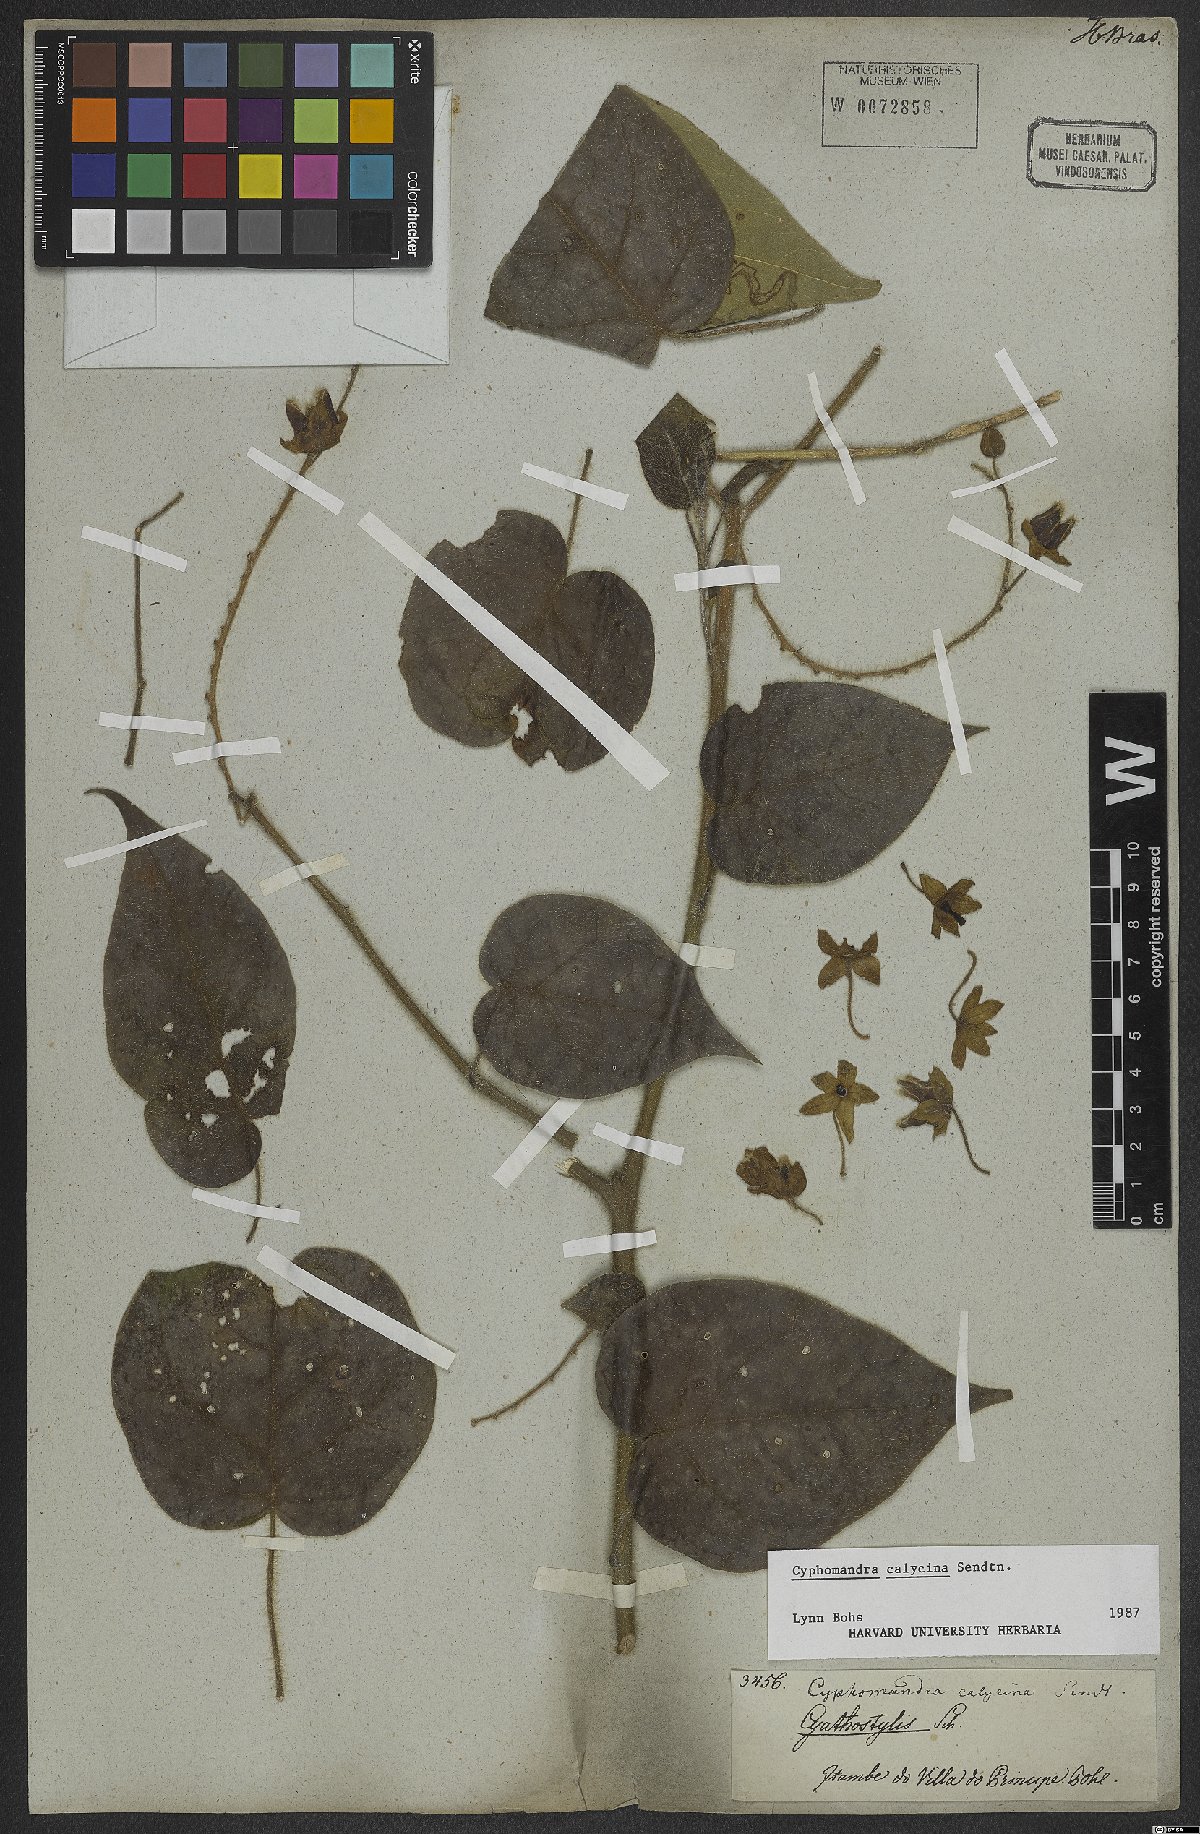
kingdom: Plantae
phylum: Tracheophyta
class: Magnoliopsida
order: Solanales
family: Solanaceae
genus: Solanum
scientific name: Solanum latiflorum
